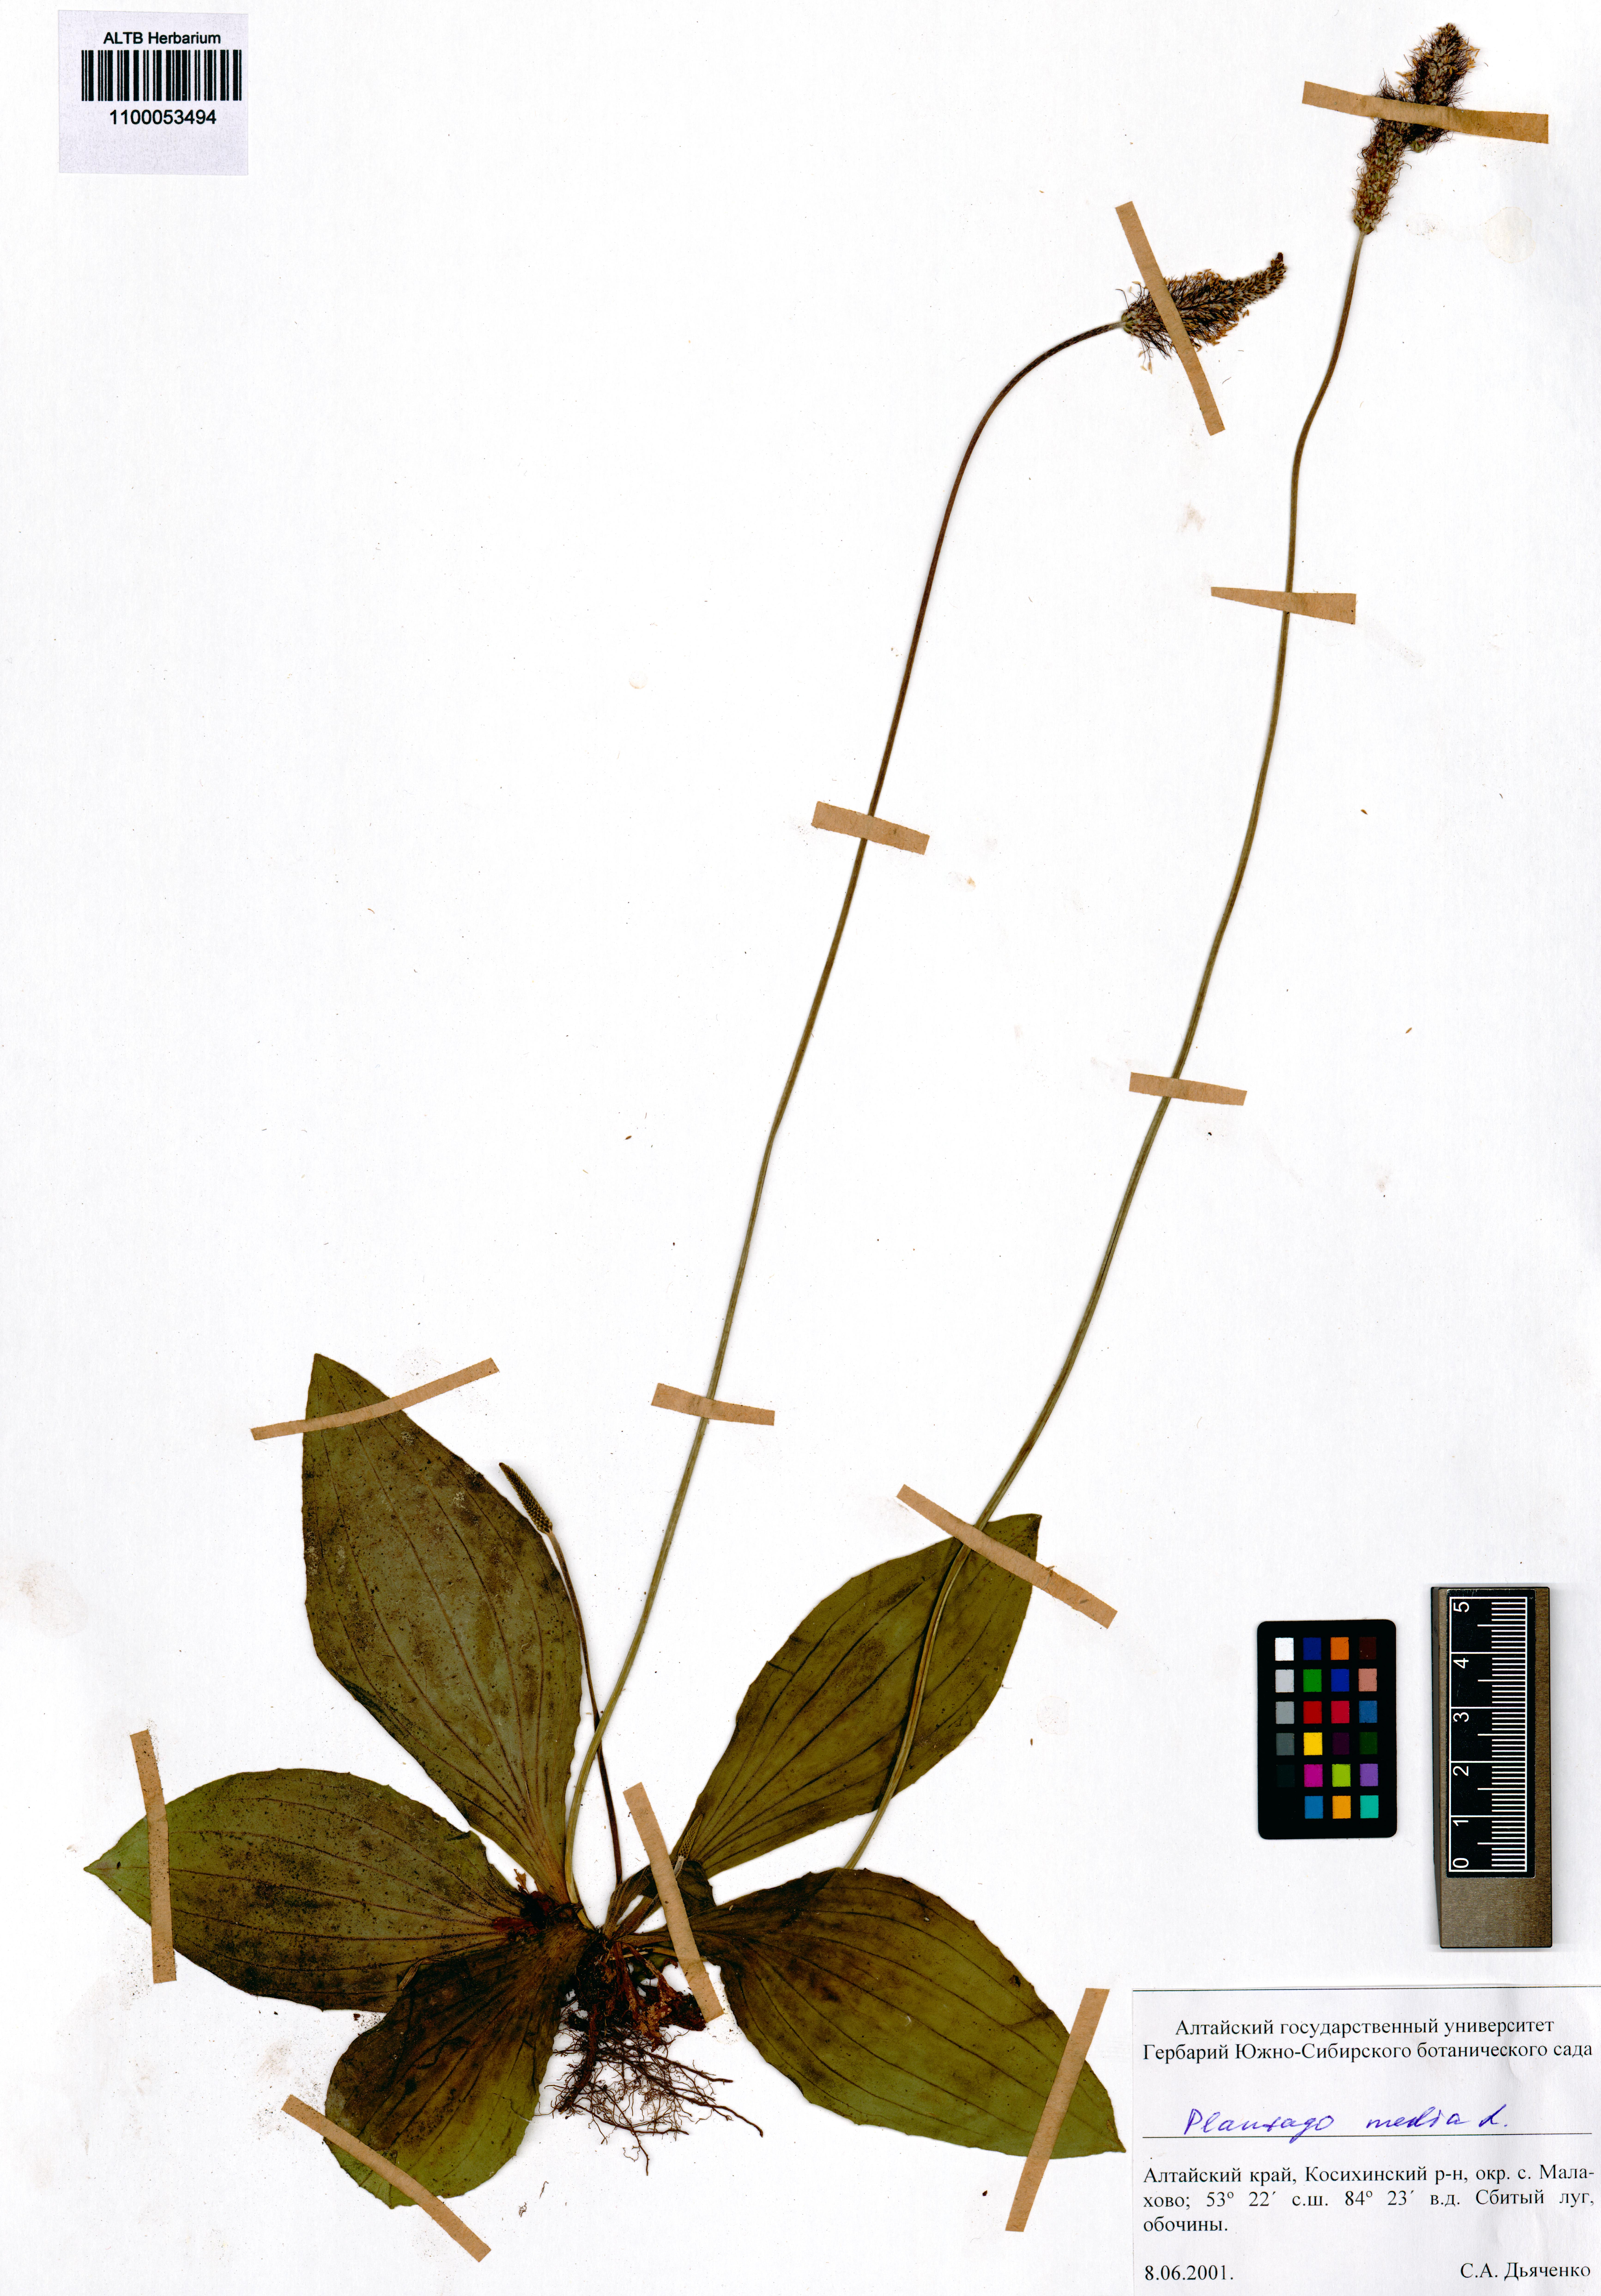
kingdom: Plantae
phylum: Tracheophyta
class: Magnoliopsida
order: Lamiales
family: Plantaginaceae
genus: Plantago
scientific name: Plantago media
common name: Hoary plantain
